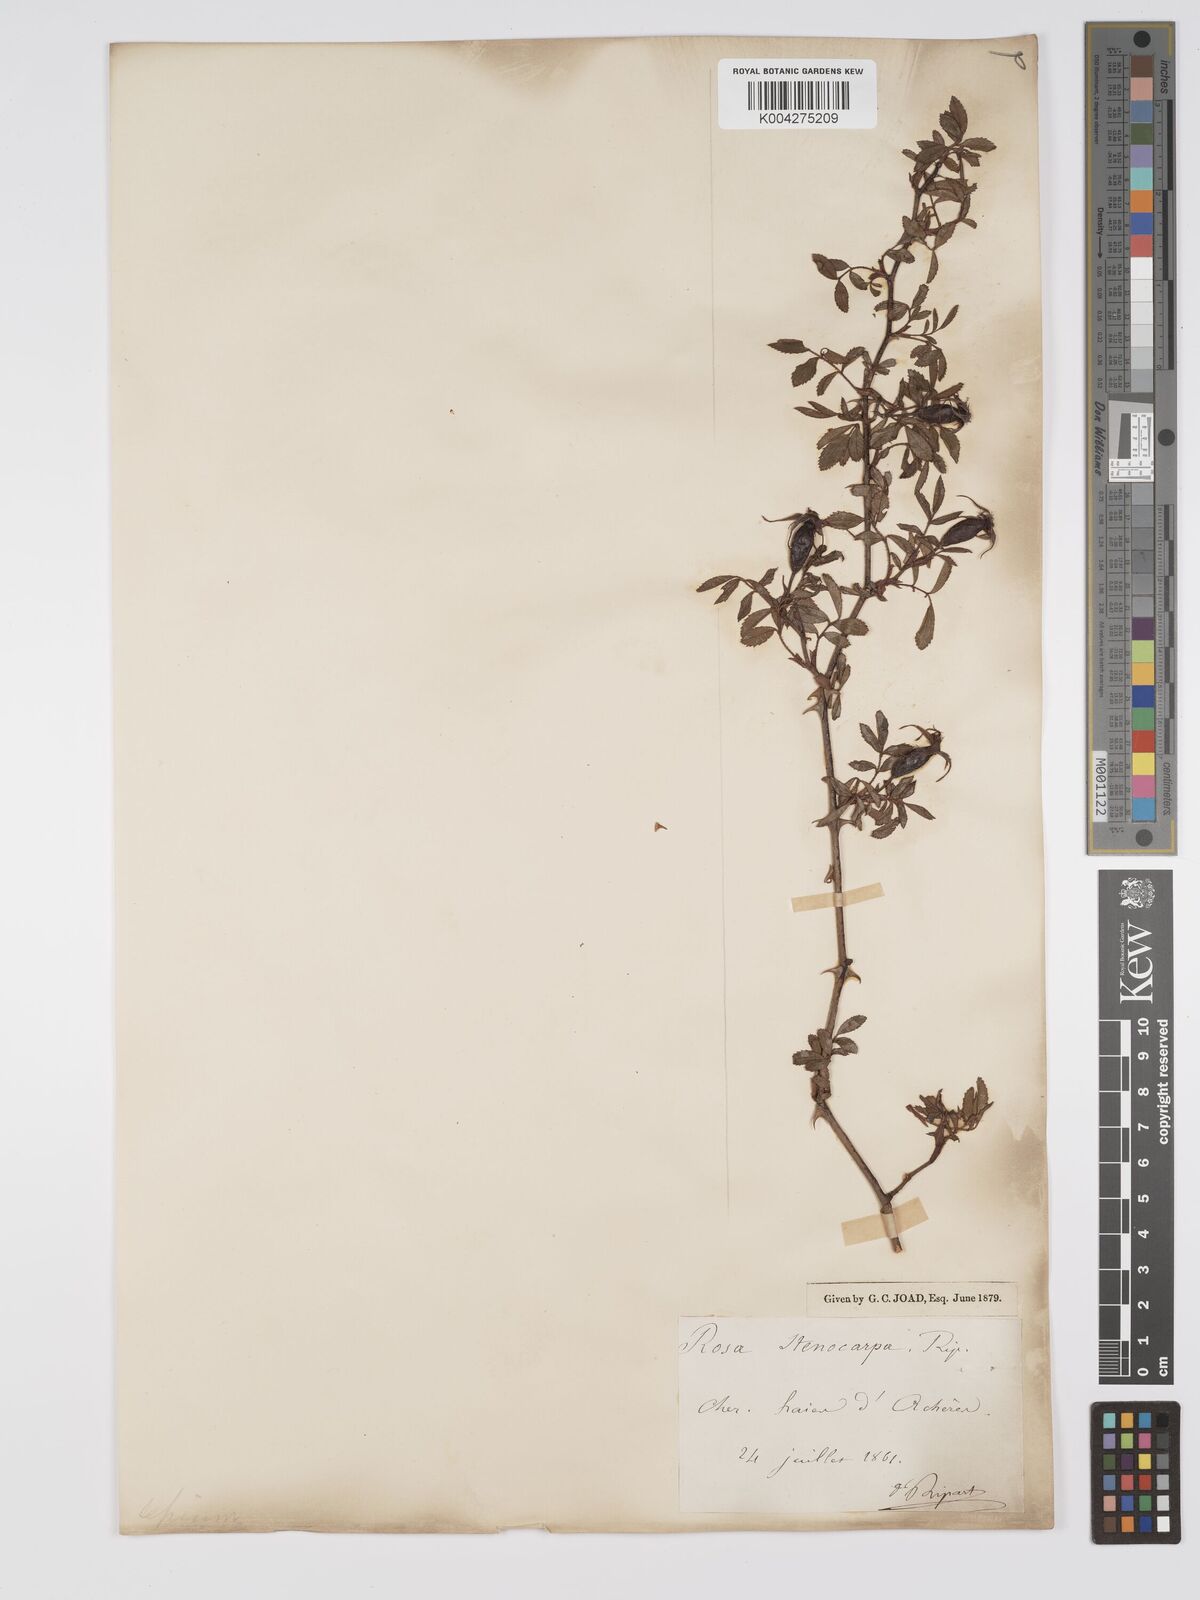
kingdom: Plantae
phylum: Tracheophyta
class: Magnoliopsida
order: Rosales
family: Rosaceae
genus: Rosa
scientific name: Rosa
